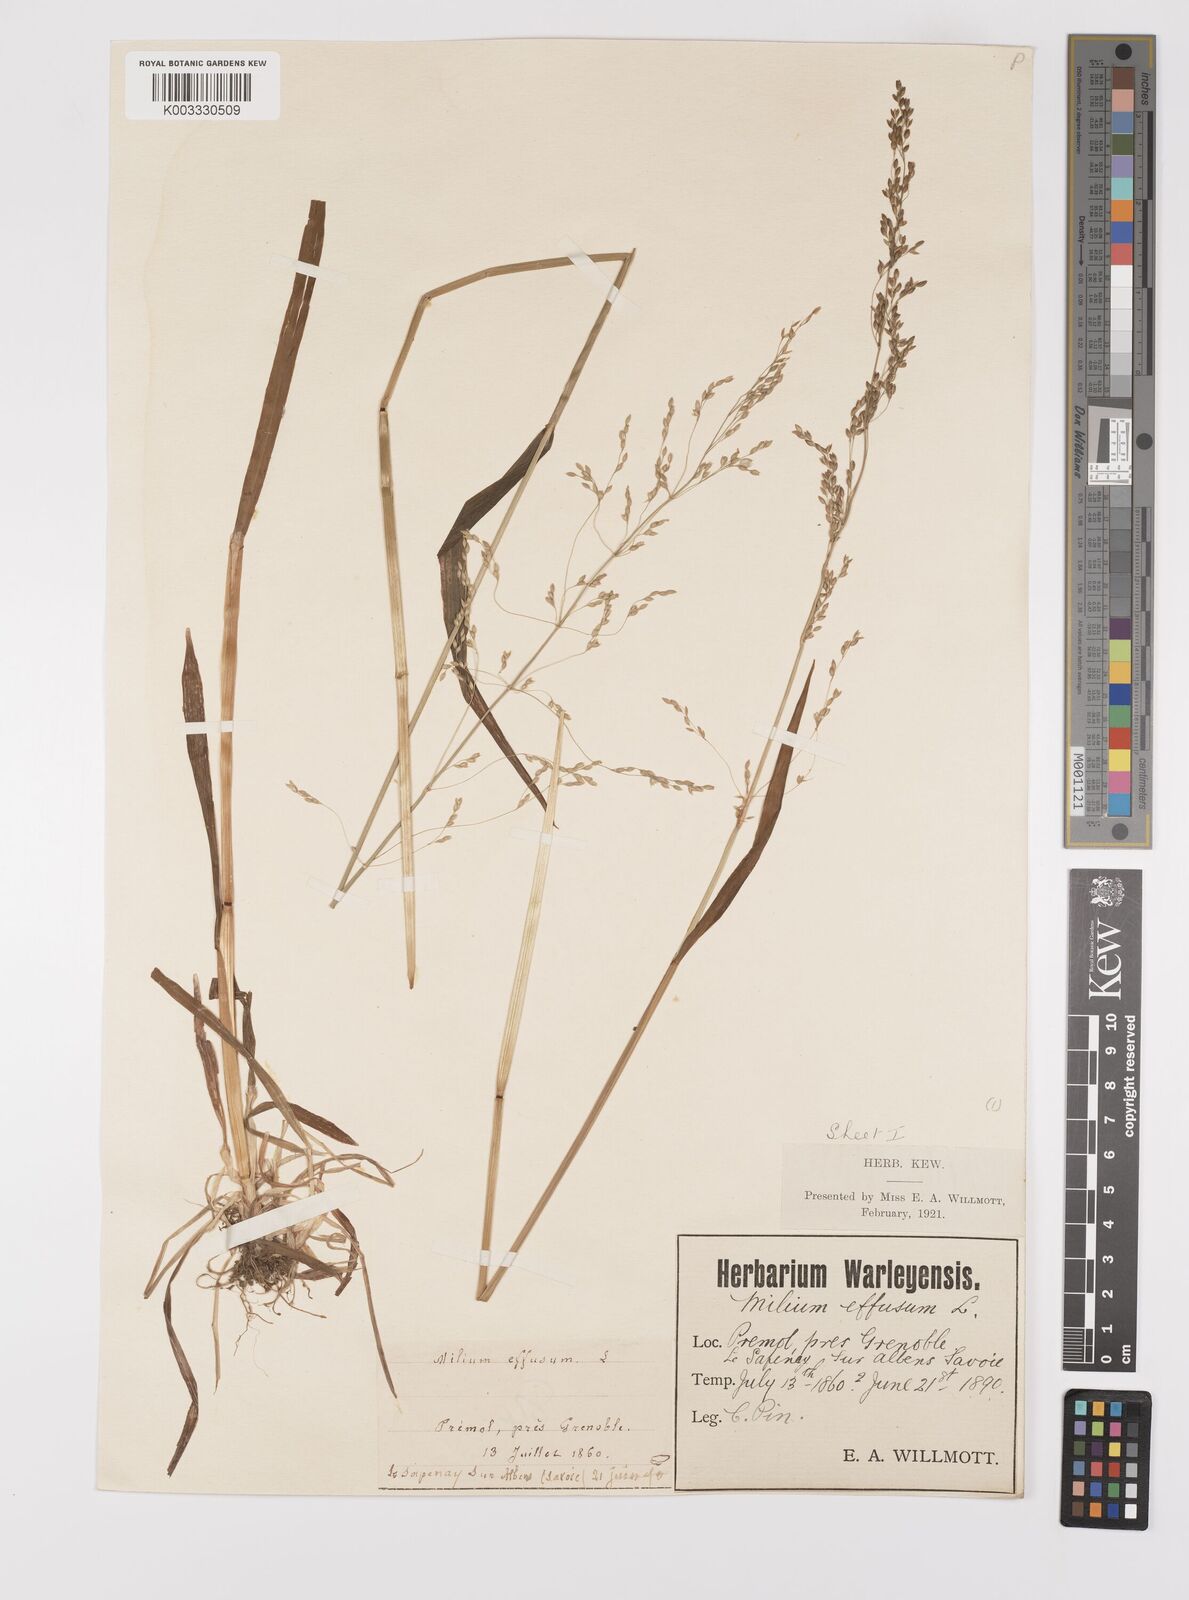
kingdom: Plantae
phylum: Tracheophyta
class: Liliopsida
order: Poales
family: Poaceae
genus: Milium
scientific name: Milium
